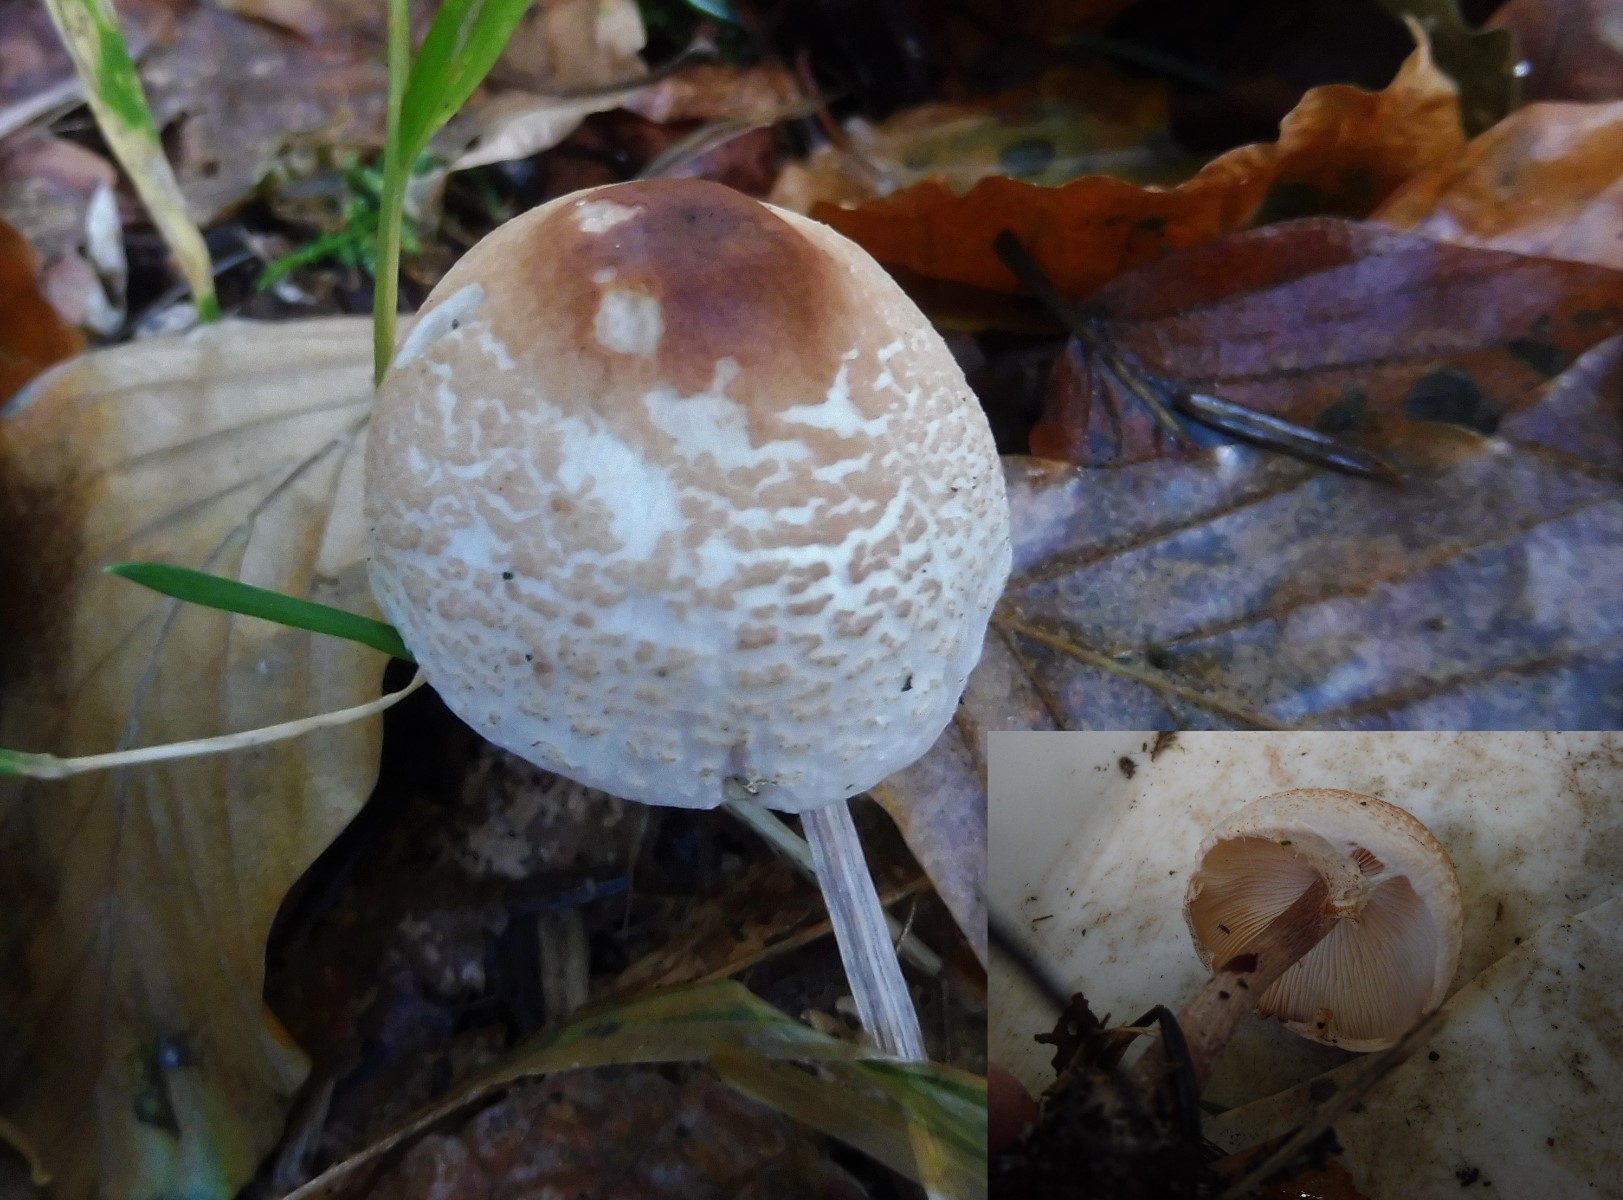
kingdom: Fungi
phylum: Basidiomycota
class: Agaricomycetes
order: Agaricales
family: Agaricaceae
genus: Lepiota
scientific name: Lepiota cristata
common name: stinkende parasolhat
